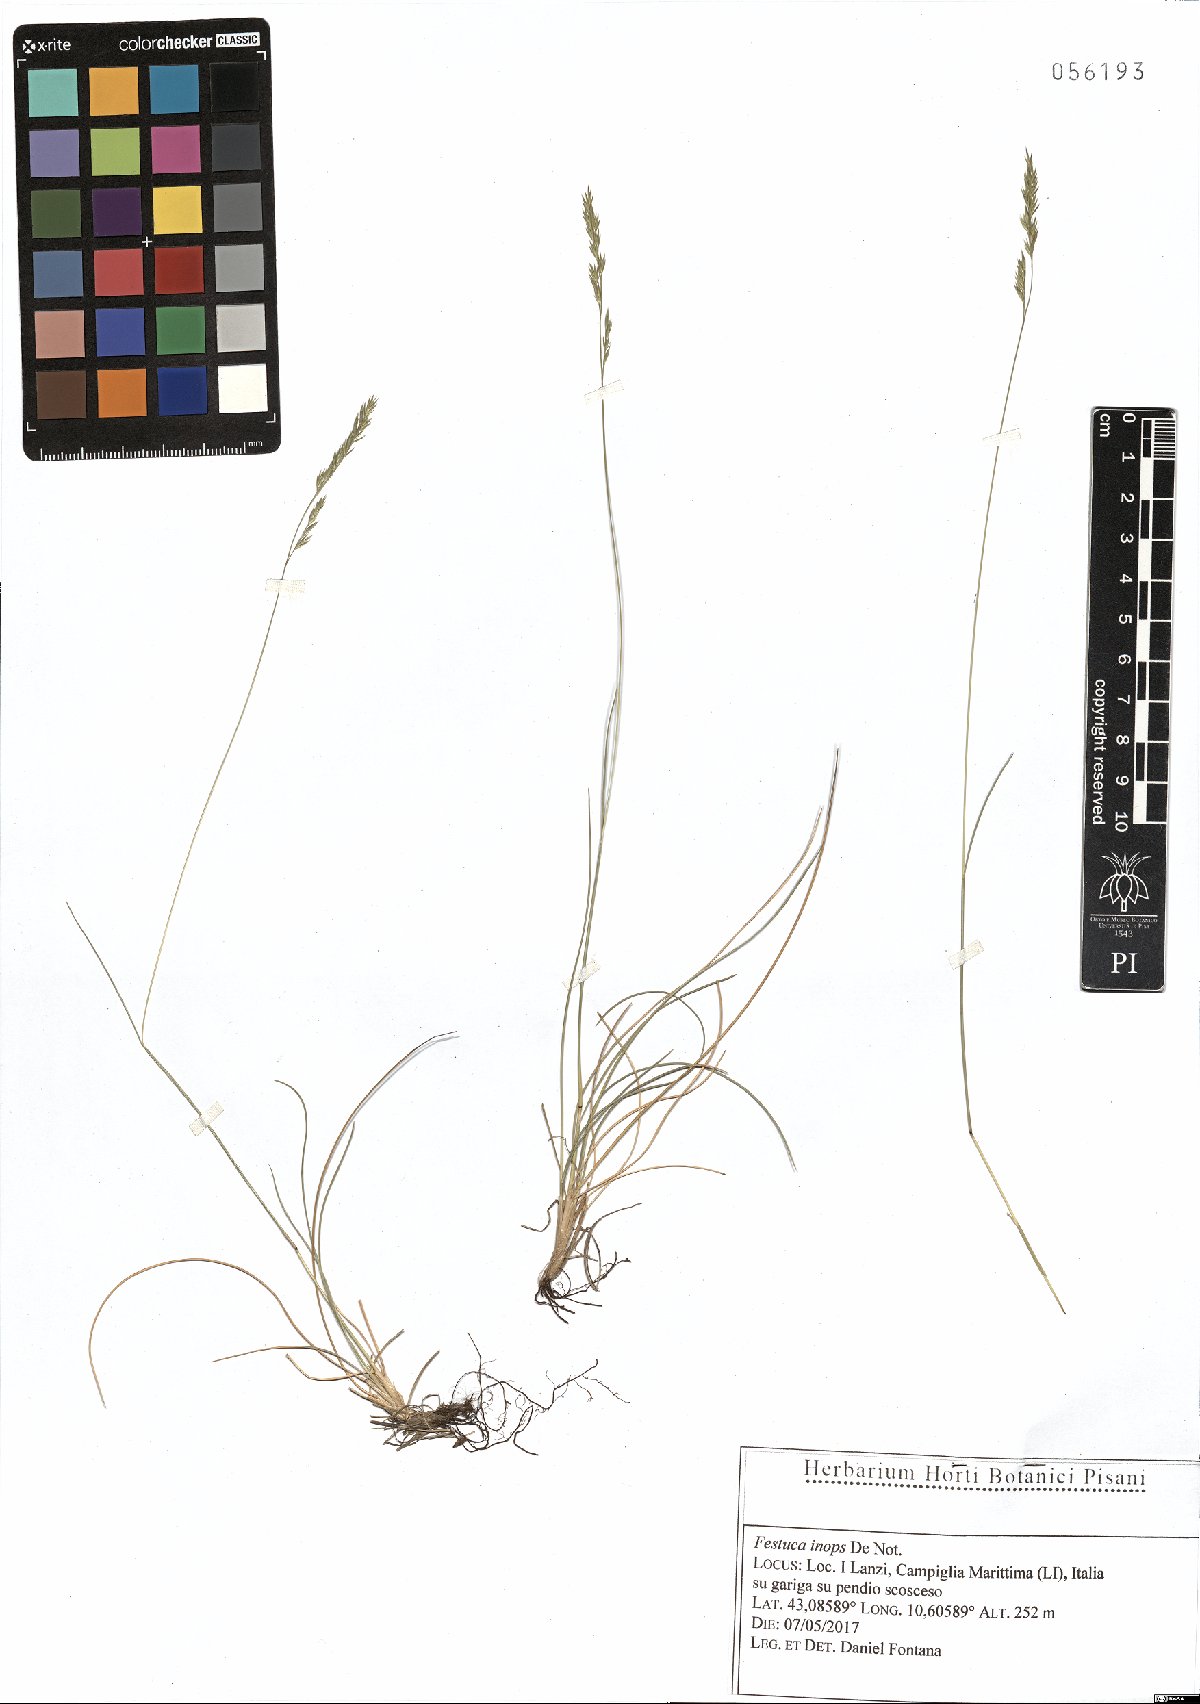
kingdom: Plantae
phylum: Tracheophyta
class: Liliopsida
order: Poales
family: Poaceae
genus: Festuca
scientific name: Festuca inops
